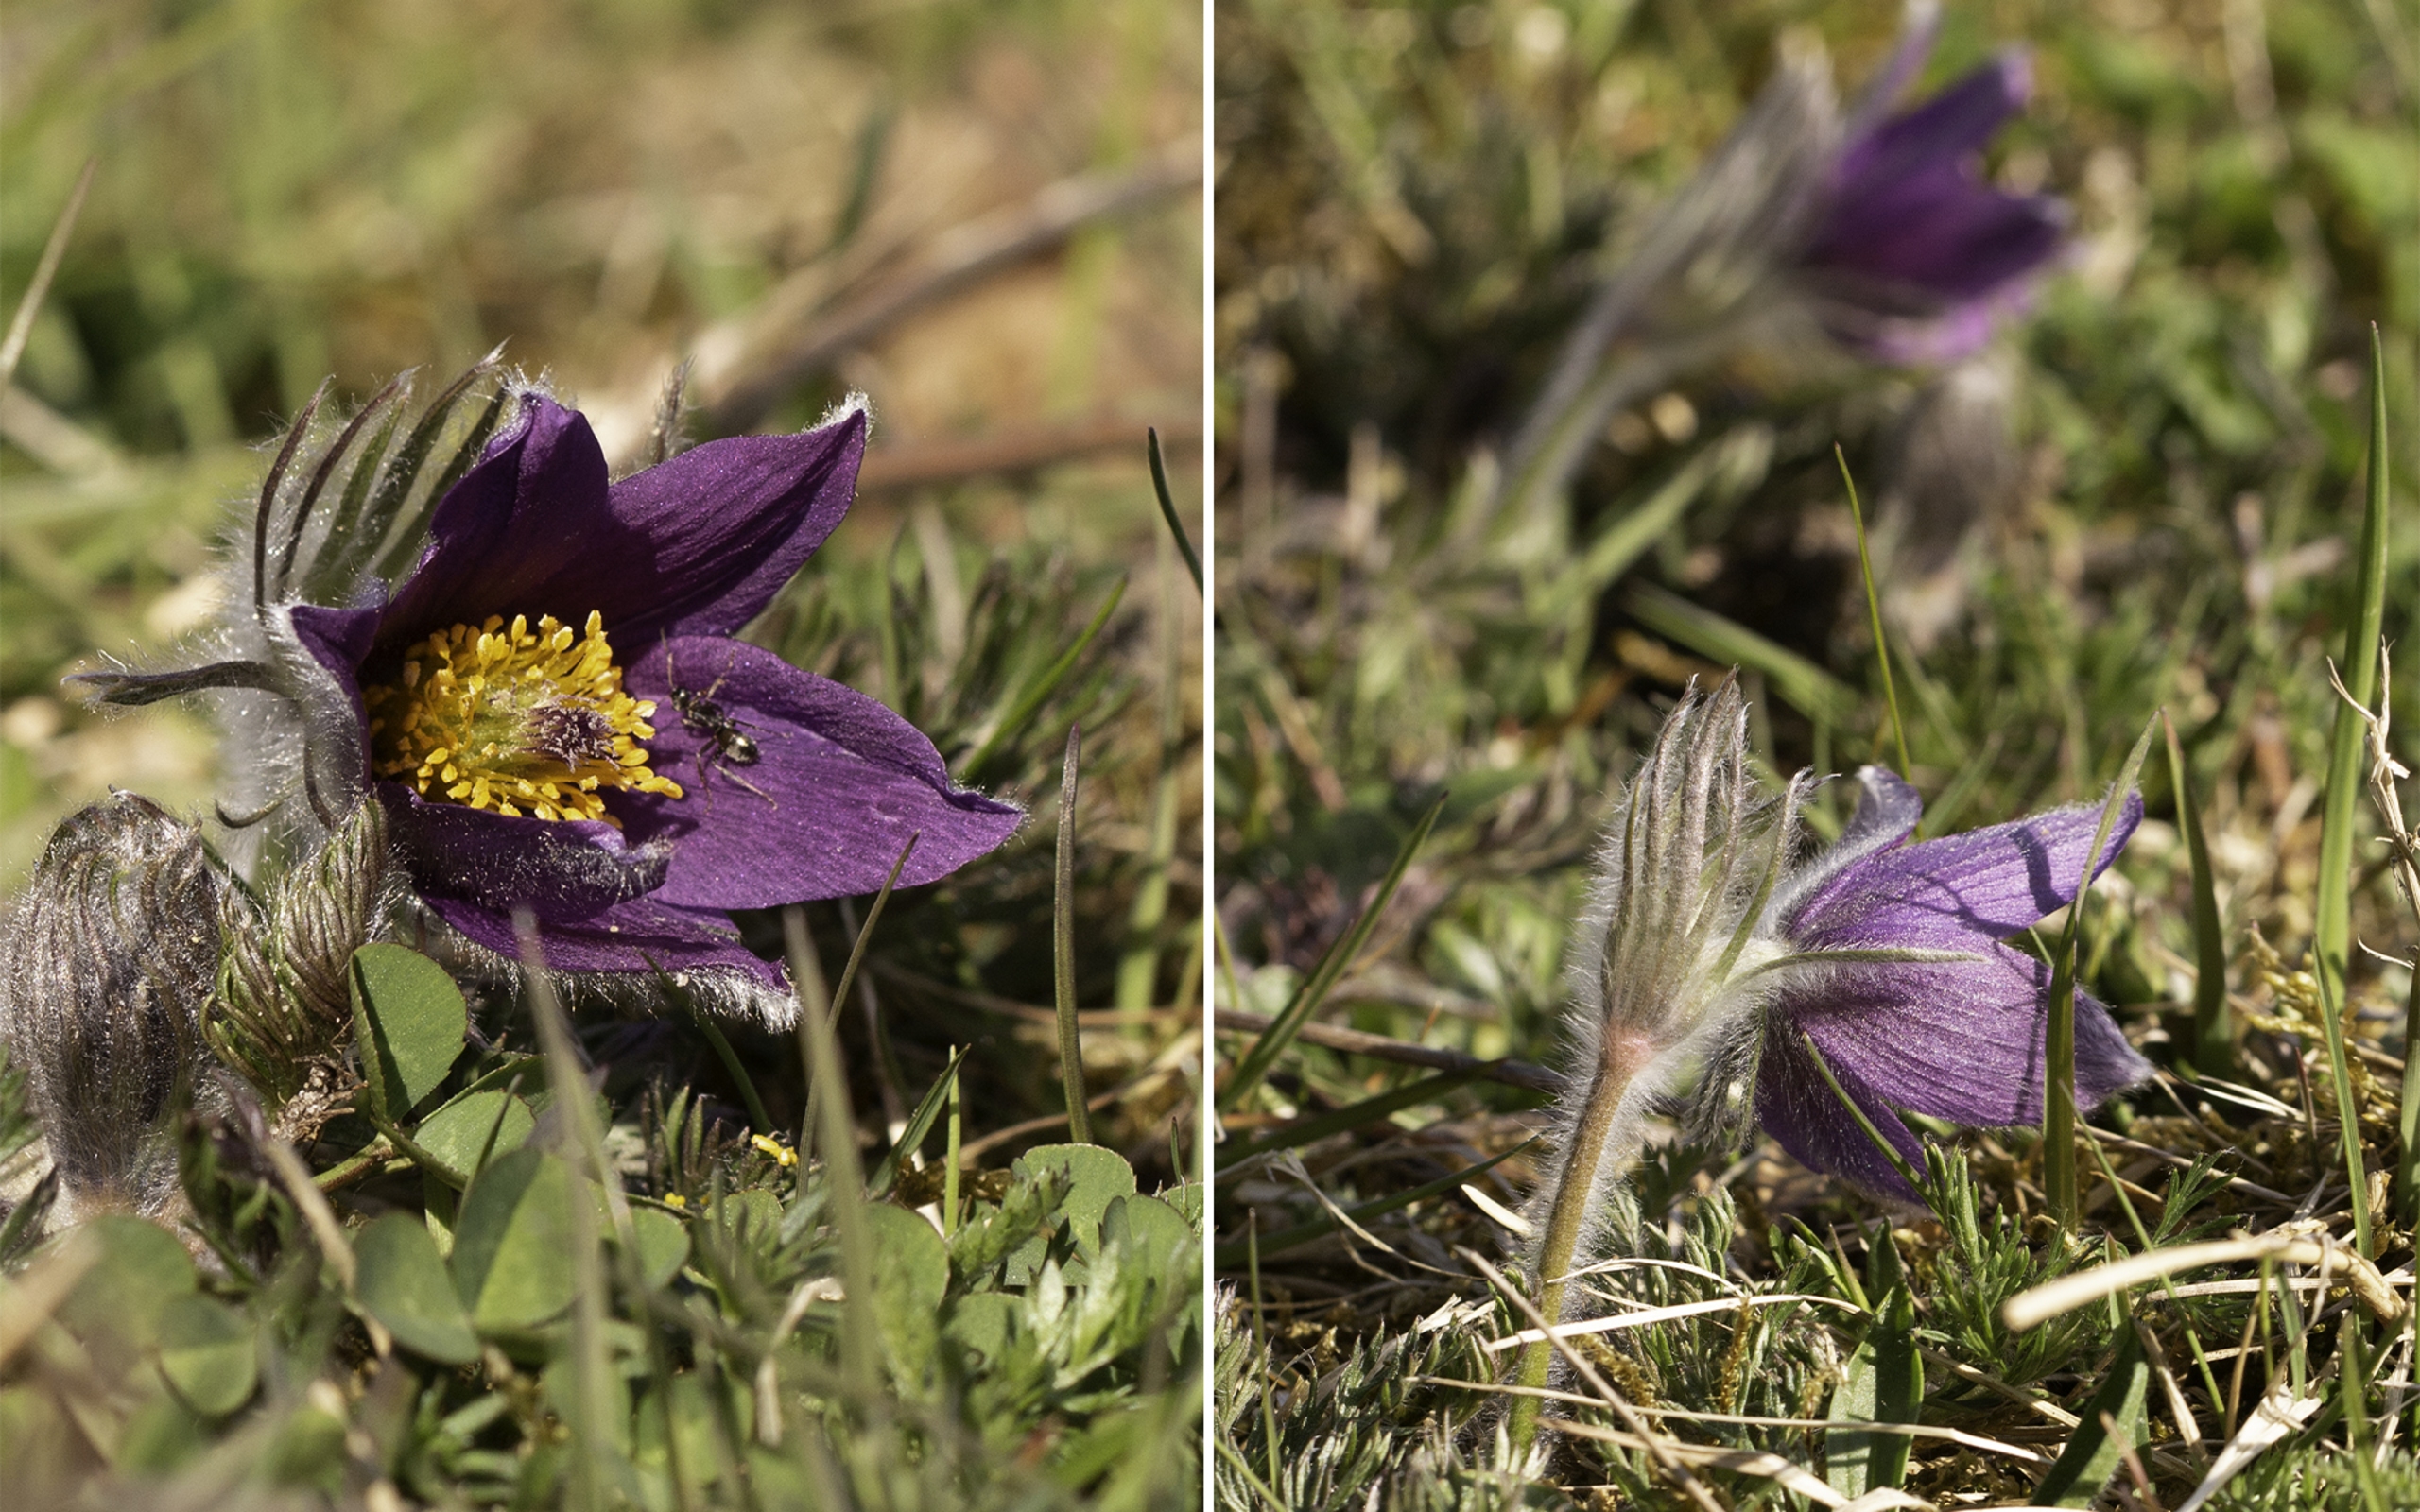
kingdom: Plantae
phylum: Tracheophyta
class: Magnoliopsida
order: Ranunculales
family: Ranunculaceae
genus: Pulsatilla
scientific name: Pulsatilla vulgaris
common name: Opret kobjælde
